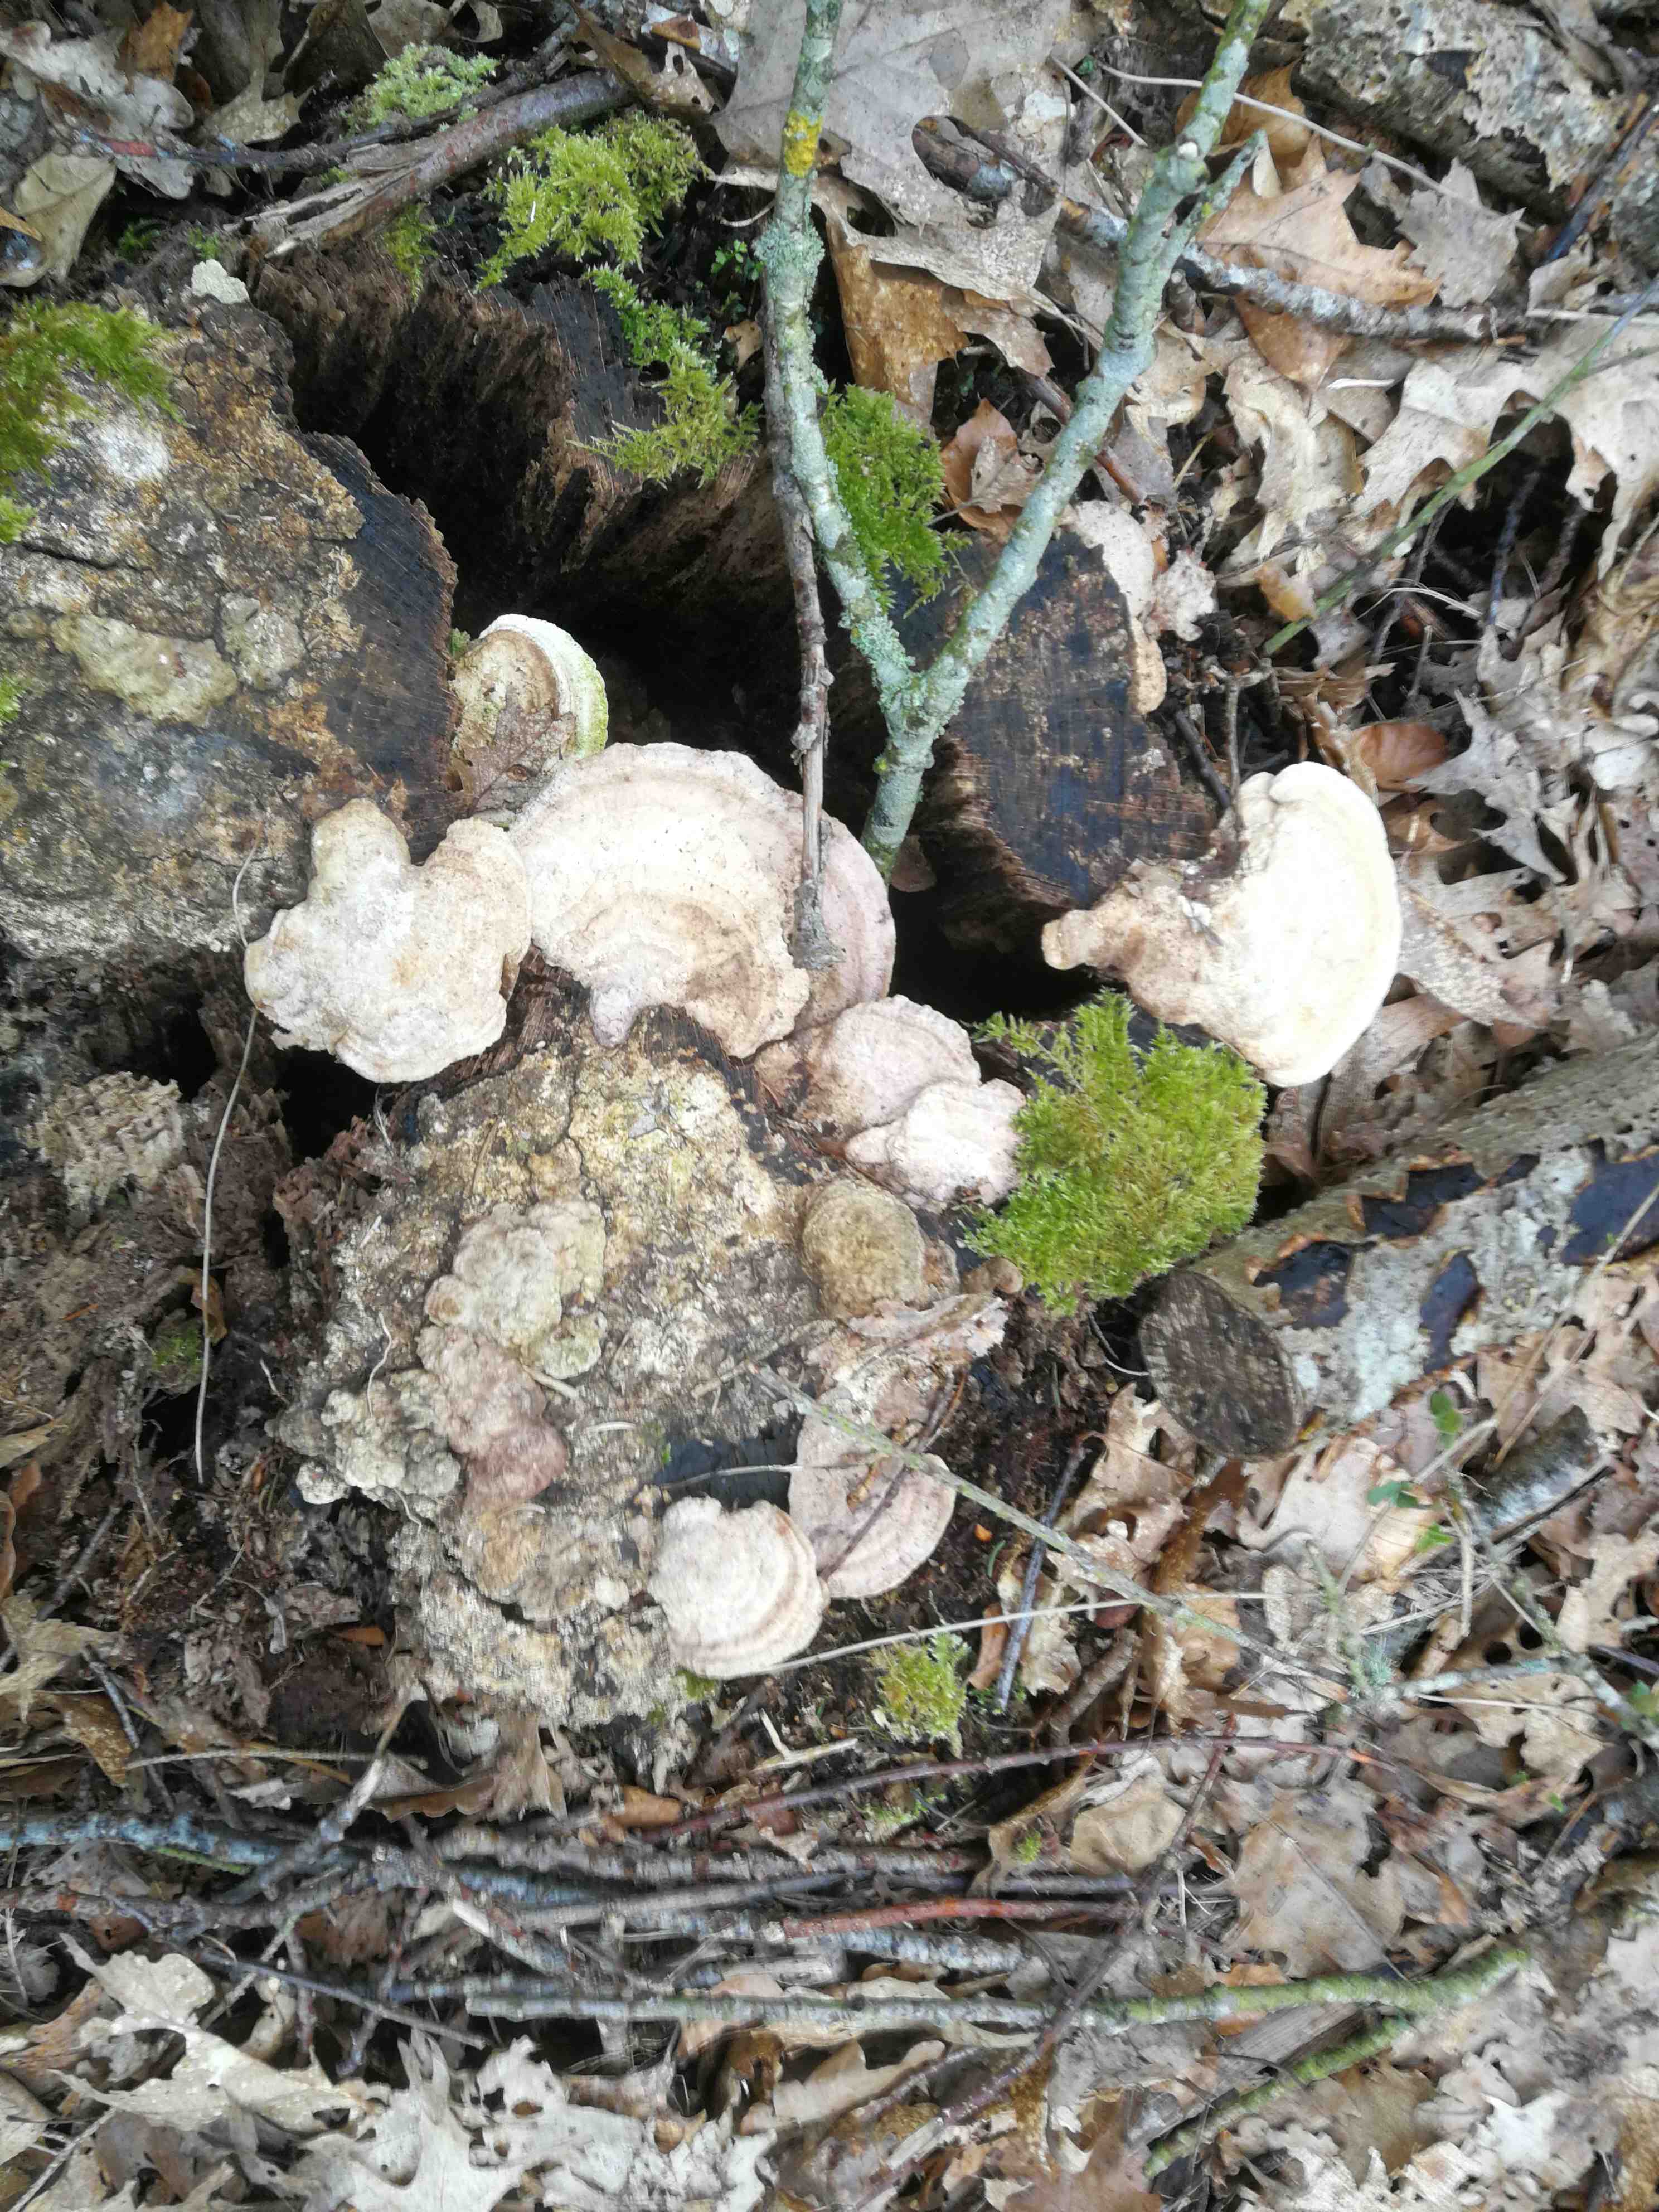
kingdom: Fungi
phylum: Basidiomycota
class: Agaricomycetes
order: Polyporales
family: Fomitopsidaceae
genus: Daedalea
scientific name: Daedalea quercina
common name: ege-labyrintsvamp
